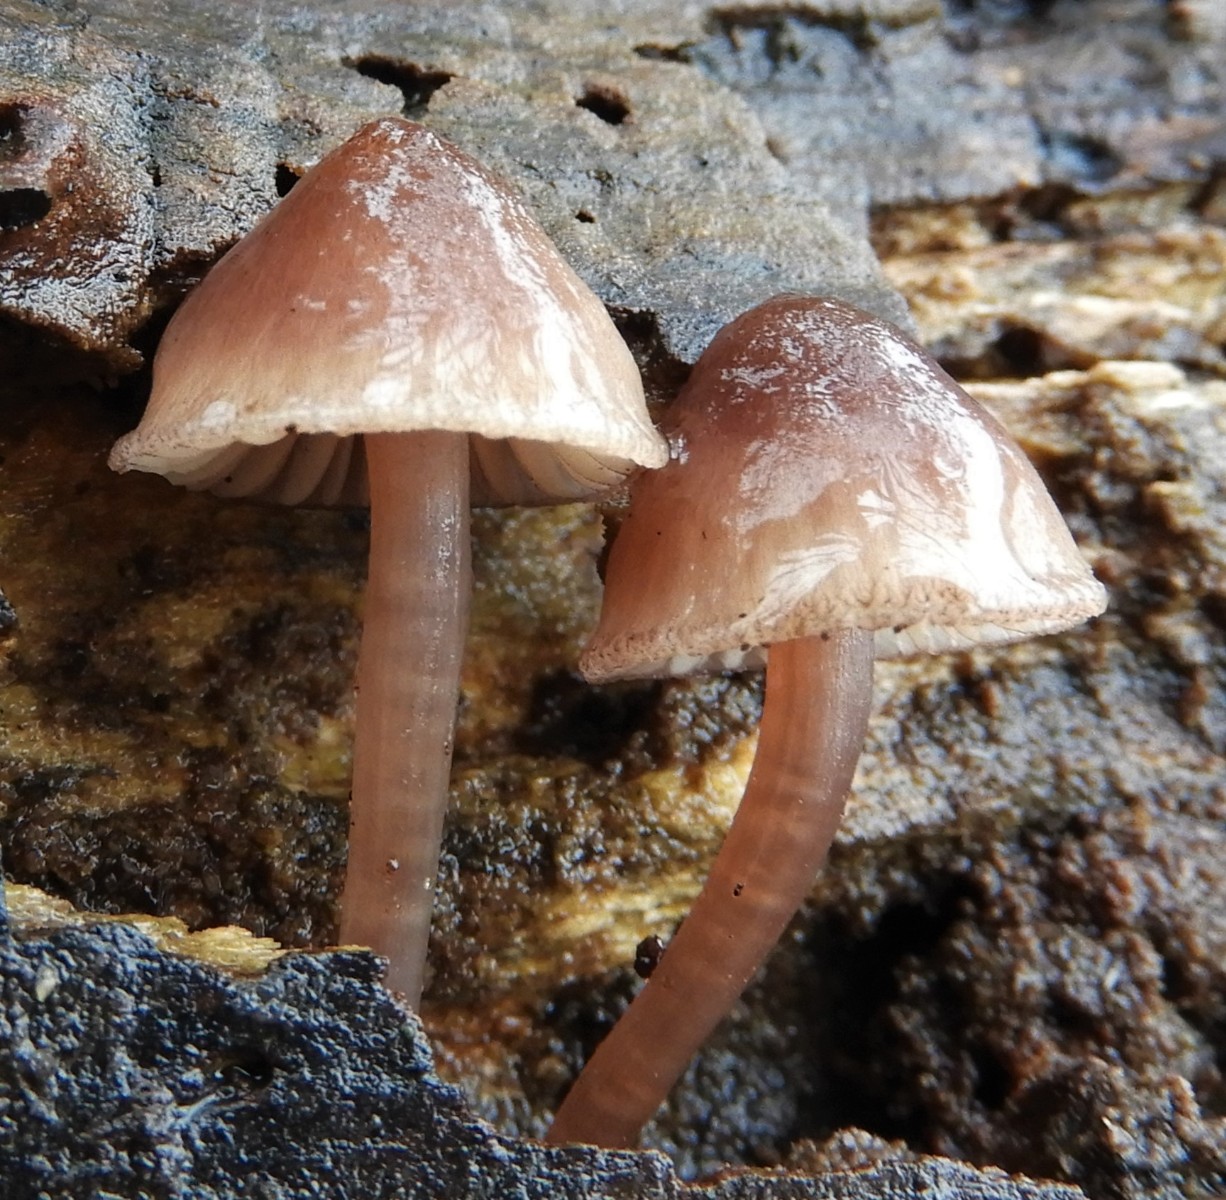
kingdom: Fungi
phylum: Basidiomycota
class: Agaricomycetes
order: Agaricales
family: Mycenaceae
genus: Mycena
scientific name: Mycena haematopus
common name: blødende huesvamp
